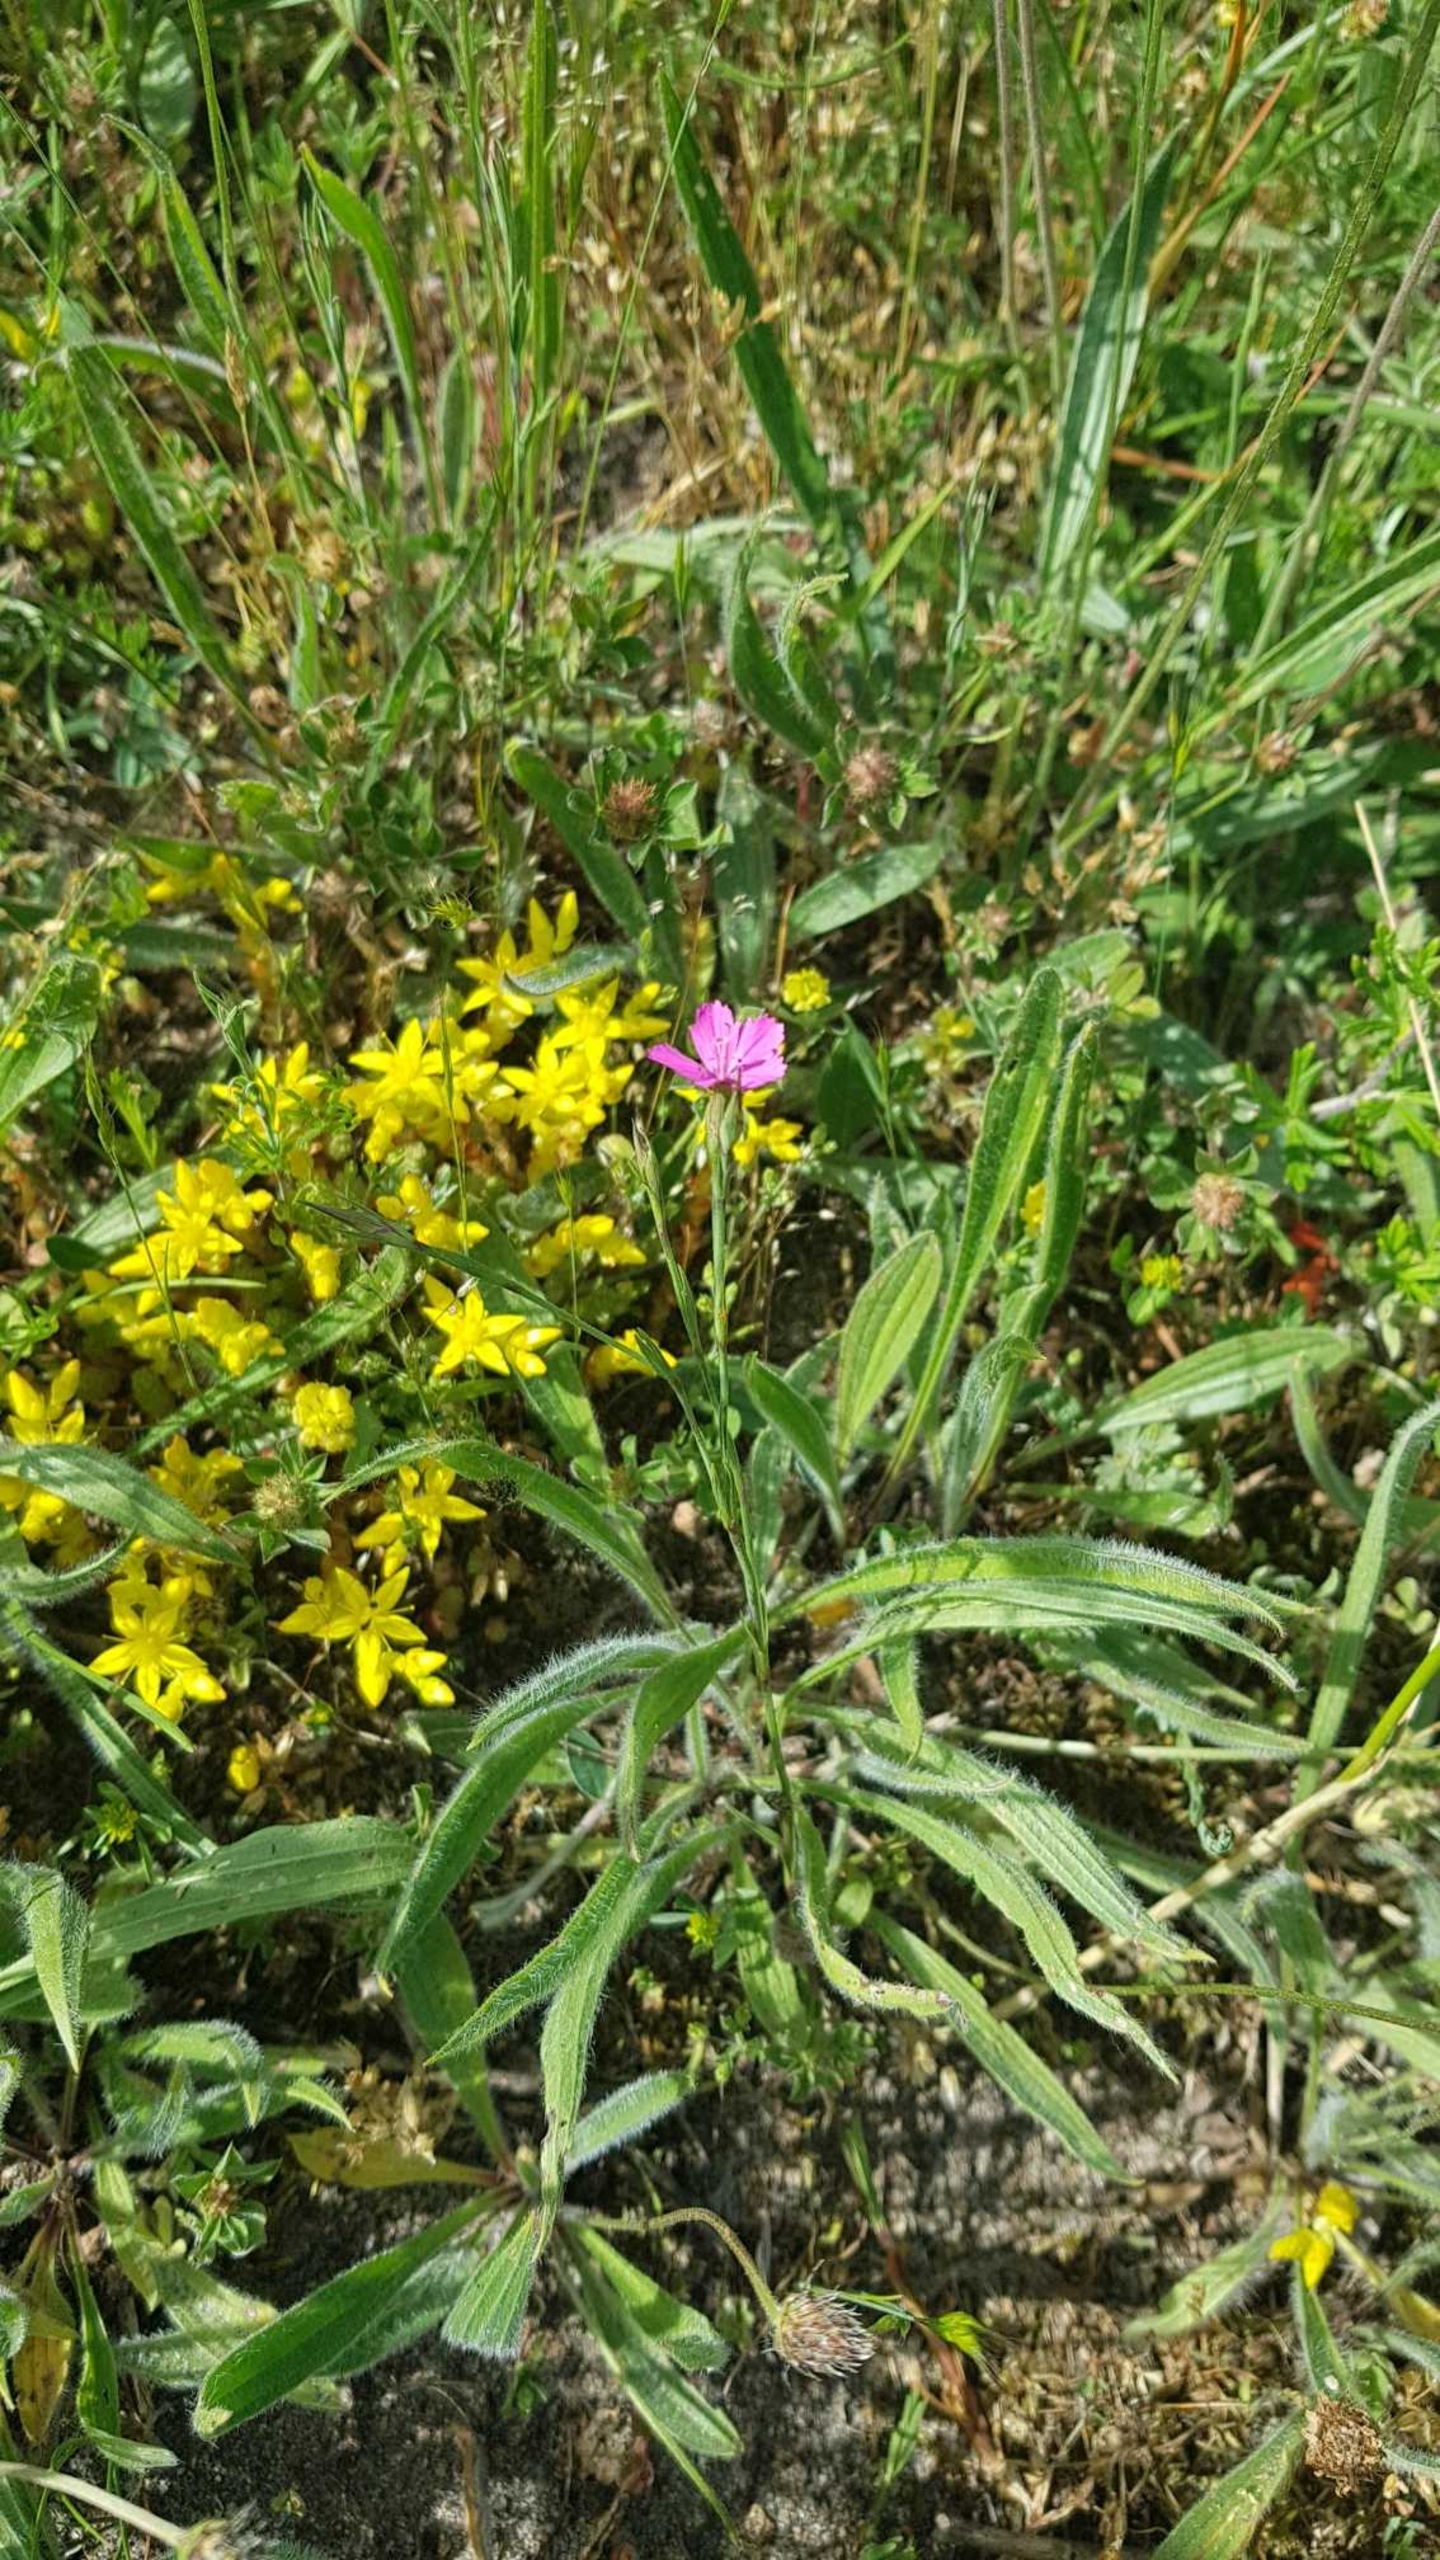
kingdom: Plantae
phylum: Tracheophyta
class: Magnoliopsida
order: Caryophyllales
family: Caryophyllaceae
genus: Dianthus
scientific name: Dianthus deltoides
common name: Bakke-nellike
